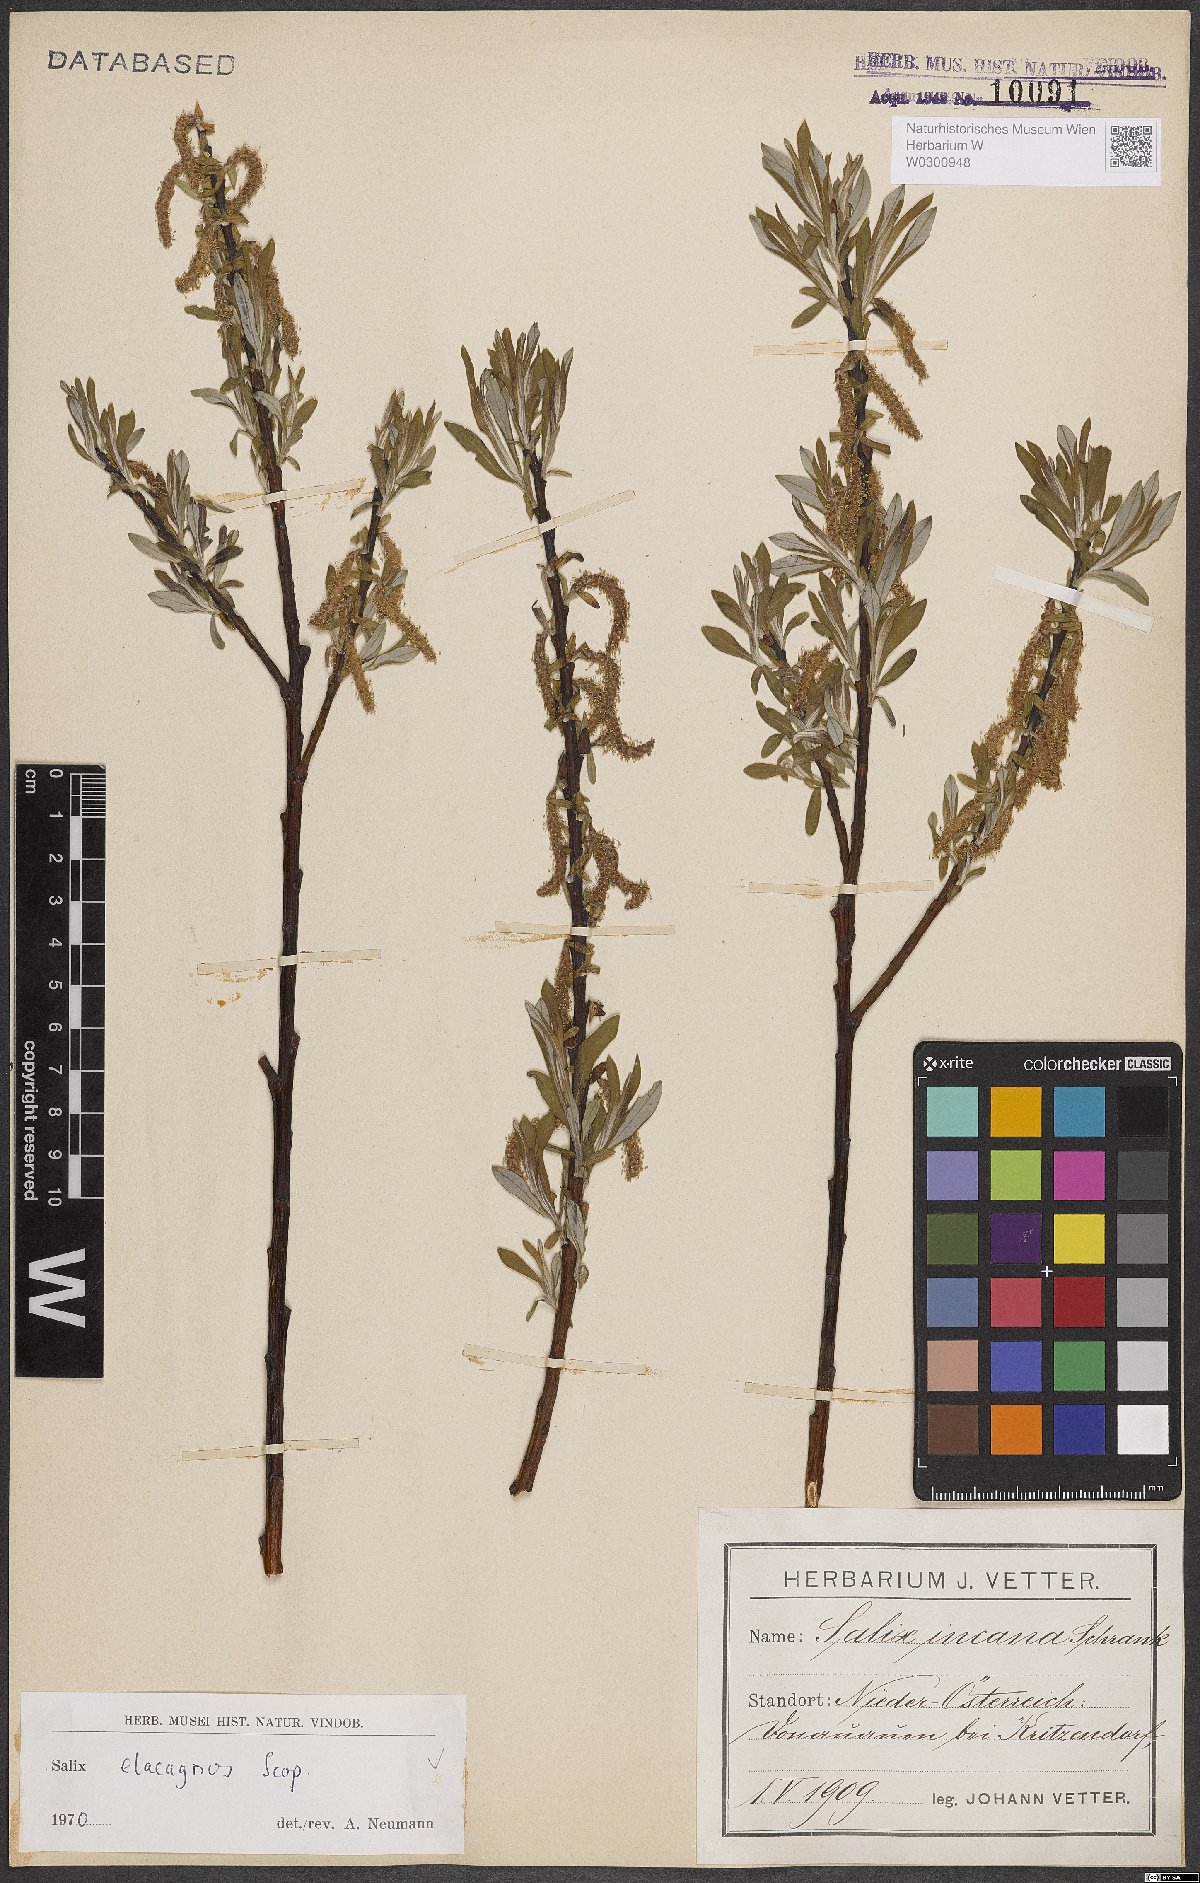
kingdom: Plantae
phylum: Tracheophyta
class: Magnoliopsida
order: Malpighiales
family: Salicaceae
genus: Salix
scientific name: Salix eleagnos
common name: Elaeagnus willow
